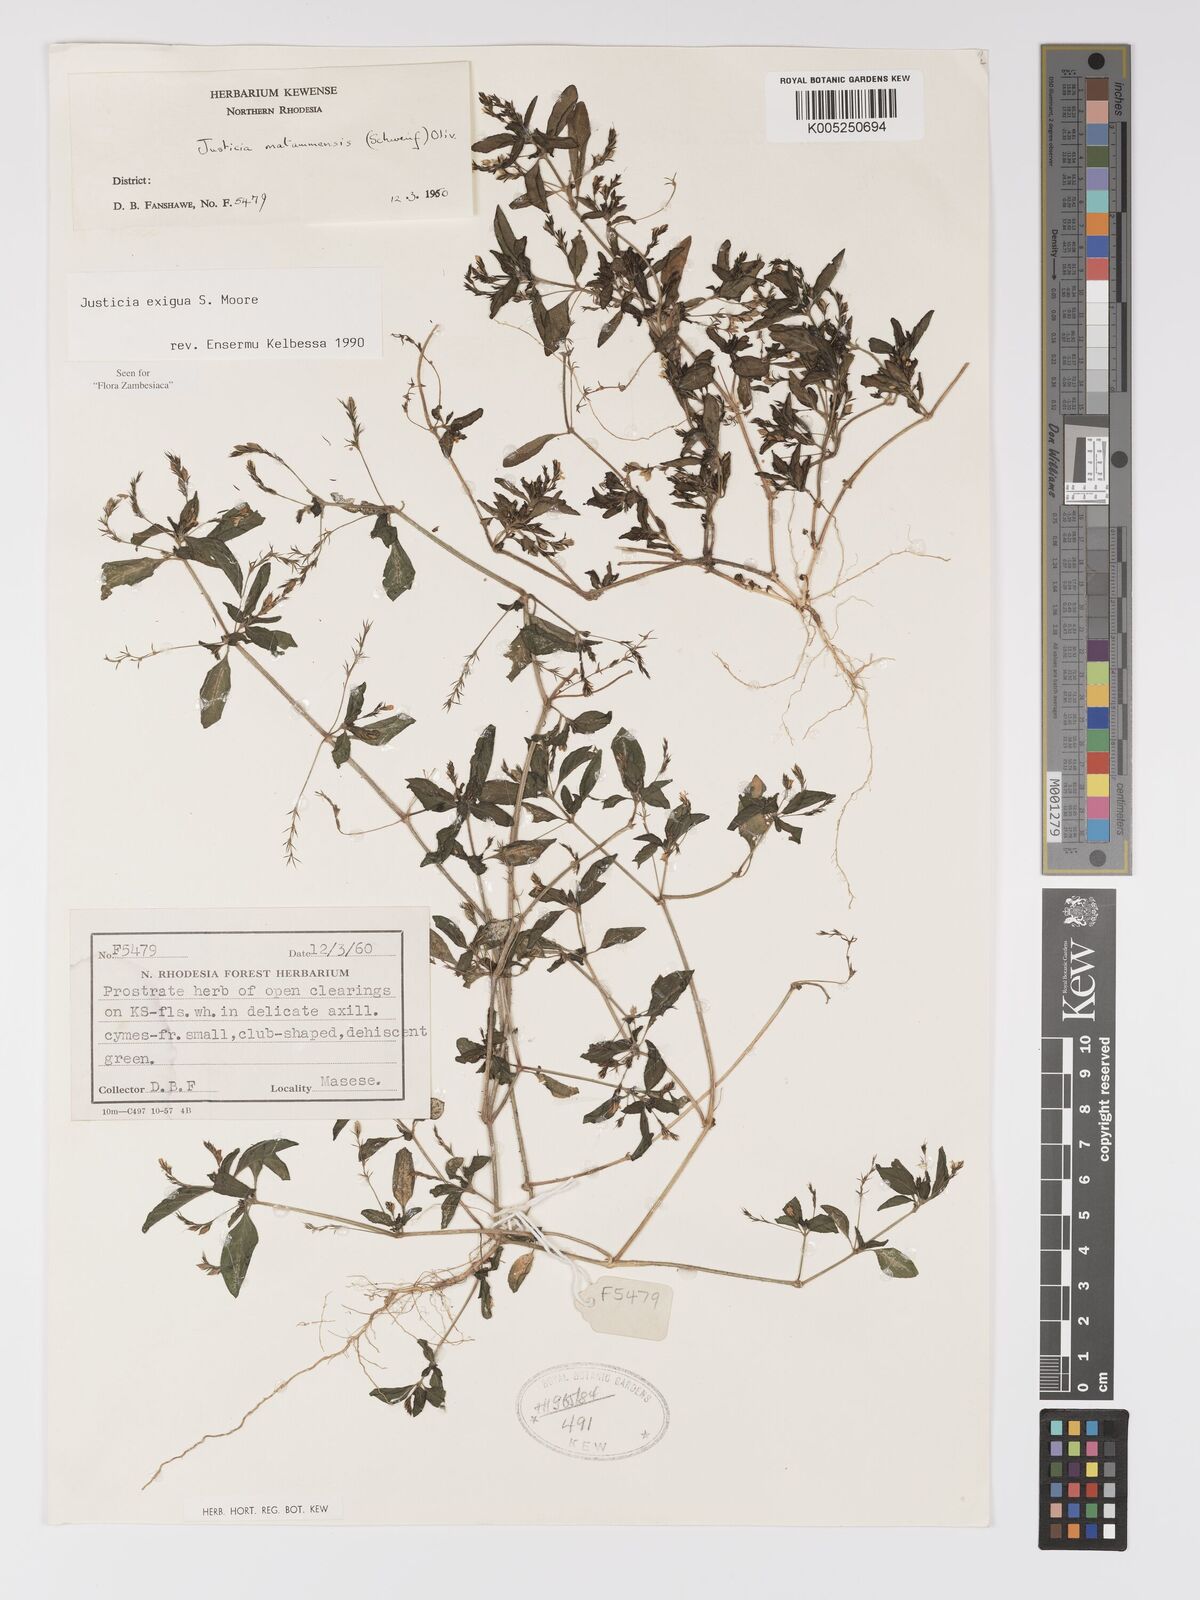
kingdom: Plantae
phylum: Tracheophyta
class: Magnoliopsida
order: Lamiales
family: Acanthaceae
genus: Justicia
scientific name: Justicia exigua
